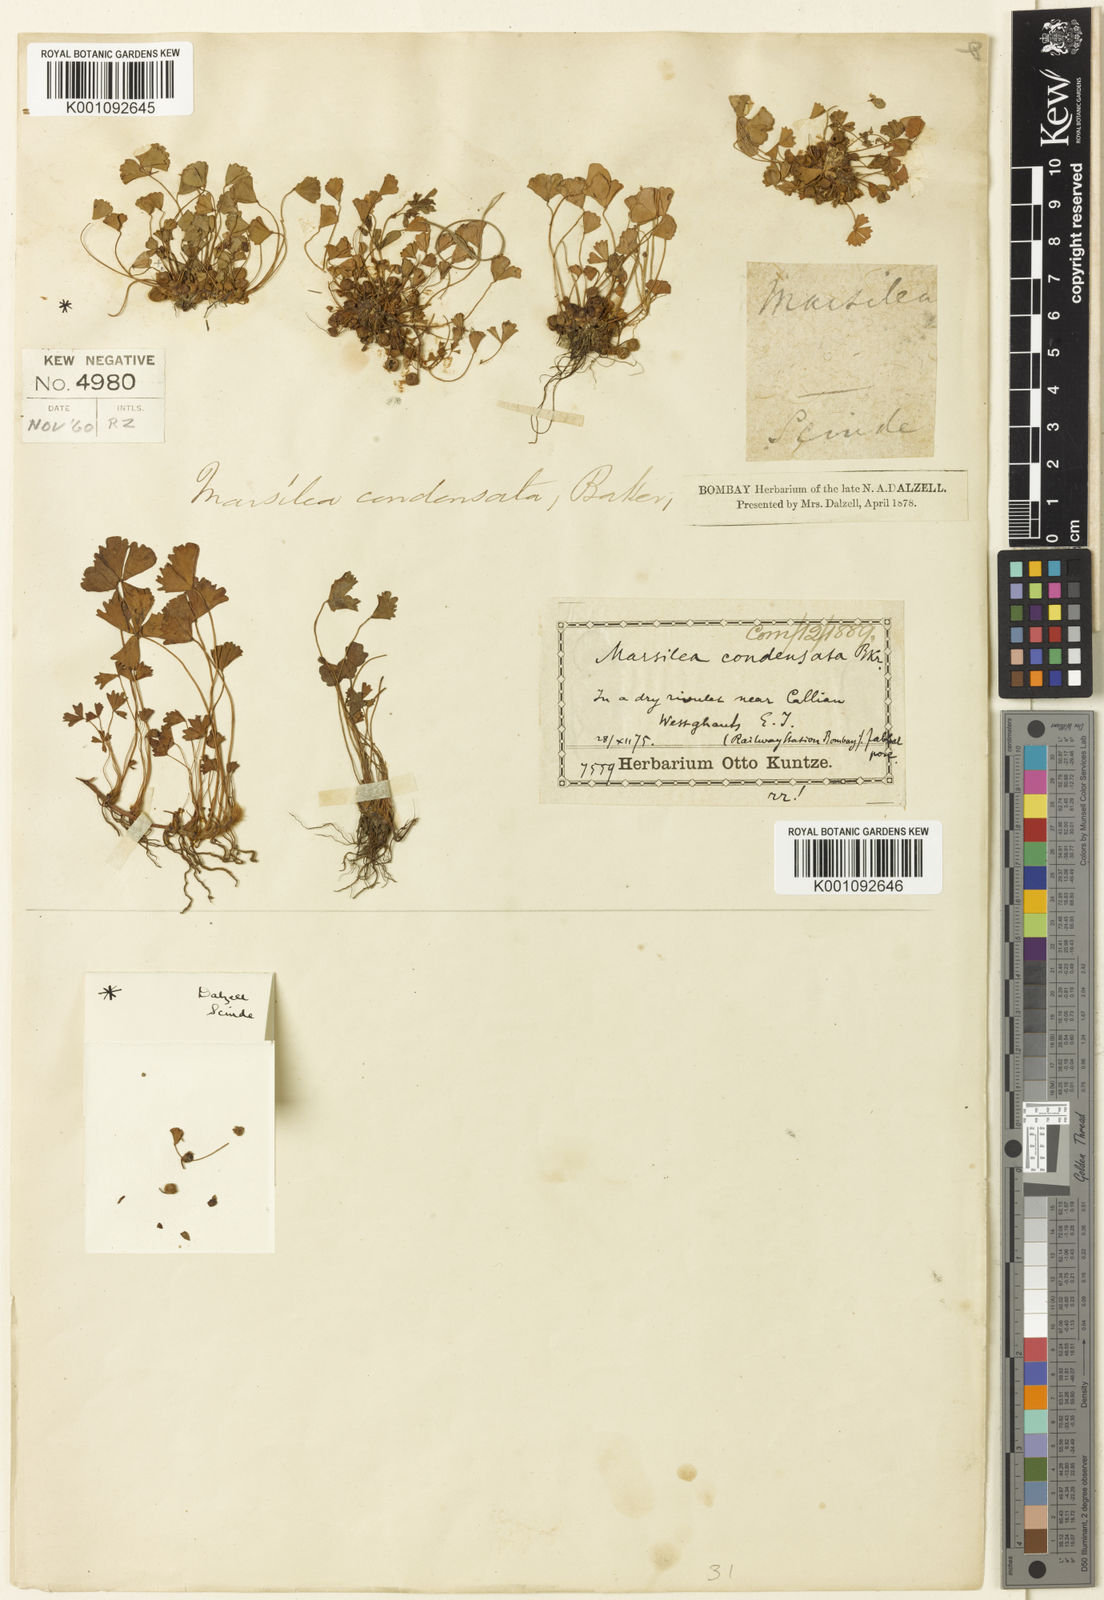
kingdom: Plantae
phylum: Tracheophyta
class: Polypodiopsida
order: Salviniales
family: Marsileaceae
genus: Marsilea
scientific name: Marsilea aegyptiaca
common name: Egyptian water-clover
